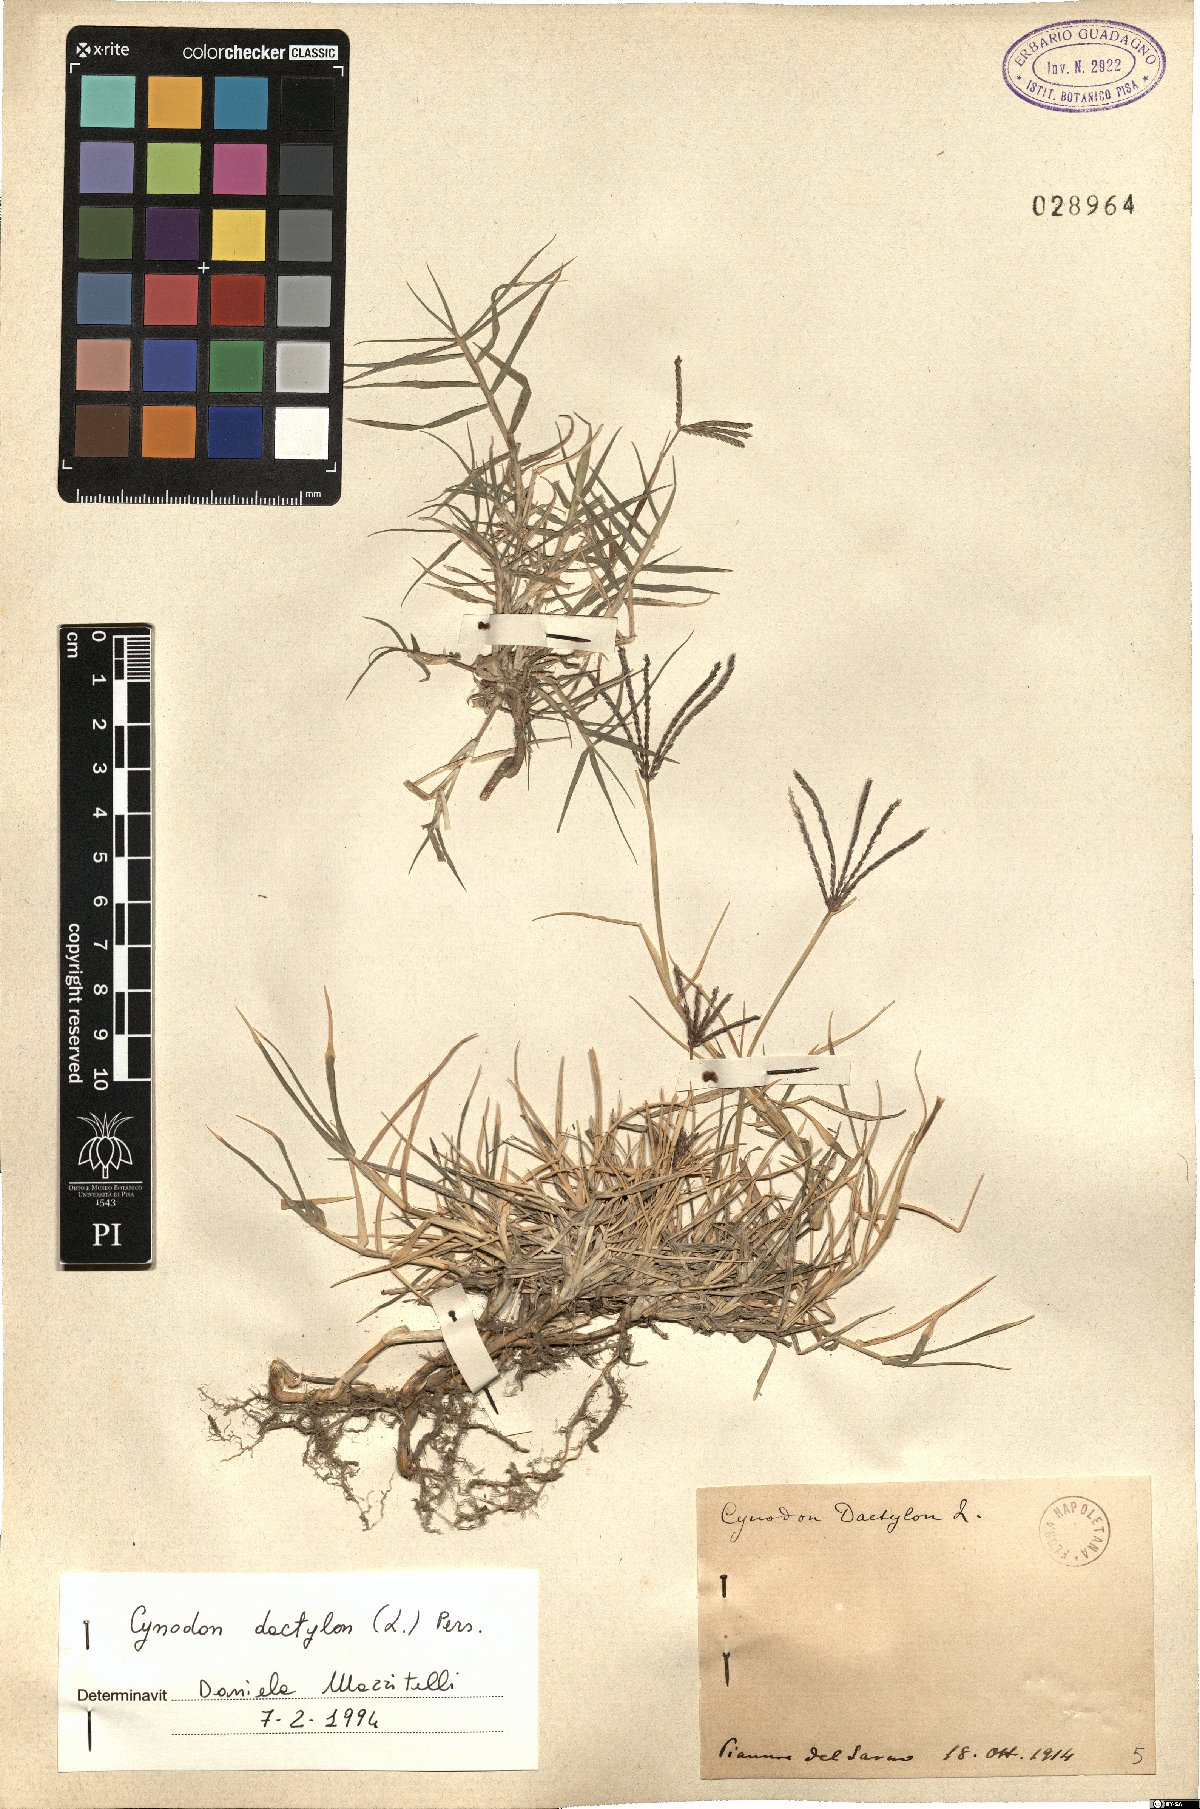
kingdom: Plantae
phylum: Tracheophyta
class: Liliopsida
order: Poales
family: Poaceae
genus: Cynodon
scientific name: Cynodon dactylon
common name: Bermuda grass
